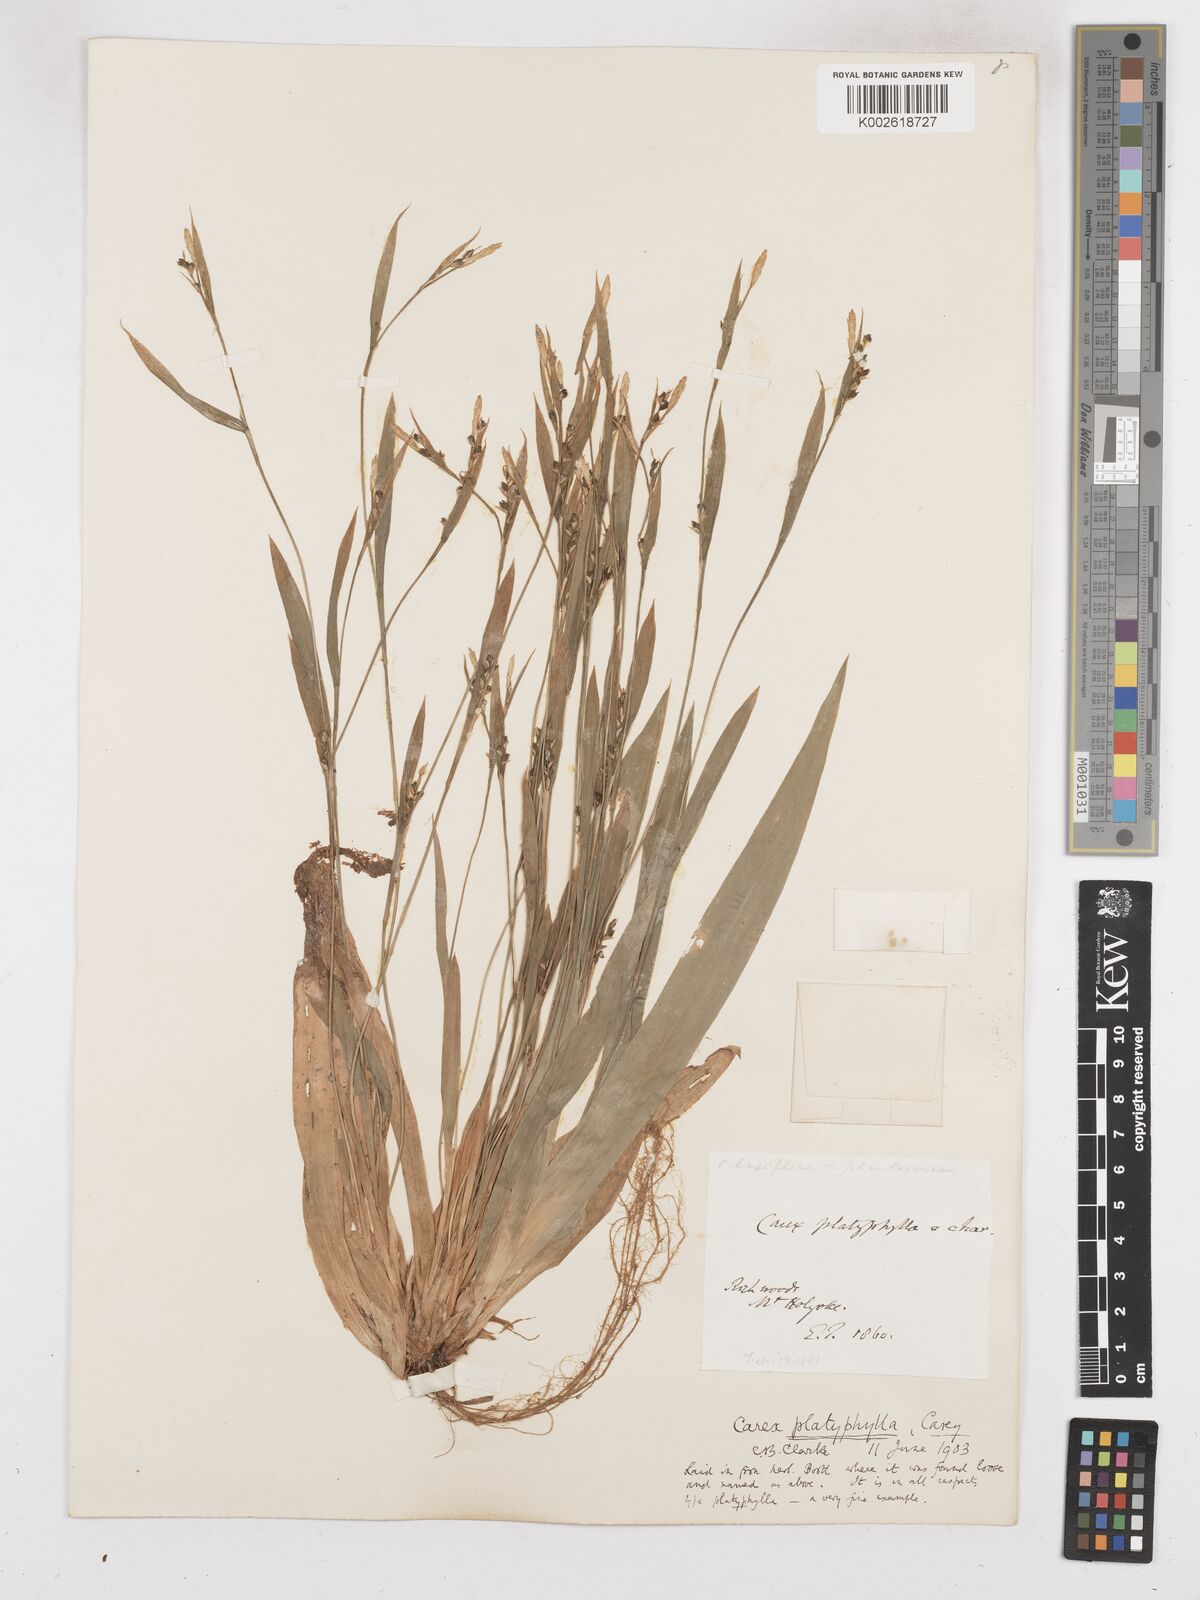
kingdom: Plantae
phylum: Tracheophyta
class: Liliopsida
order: Poales
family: Cyperaceae
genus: Carex
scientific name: Carex platyphylla
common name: Broad-leaved sedge
